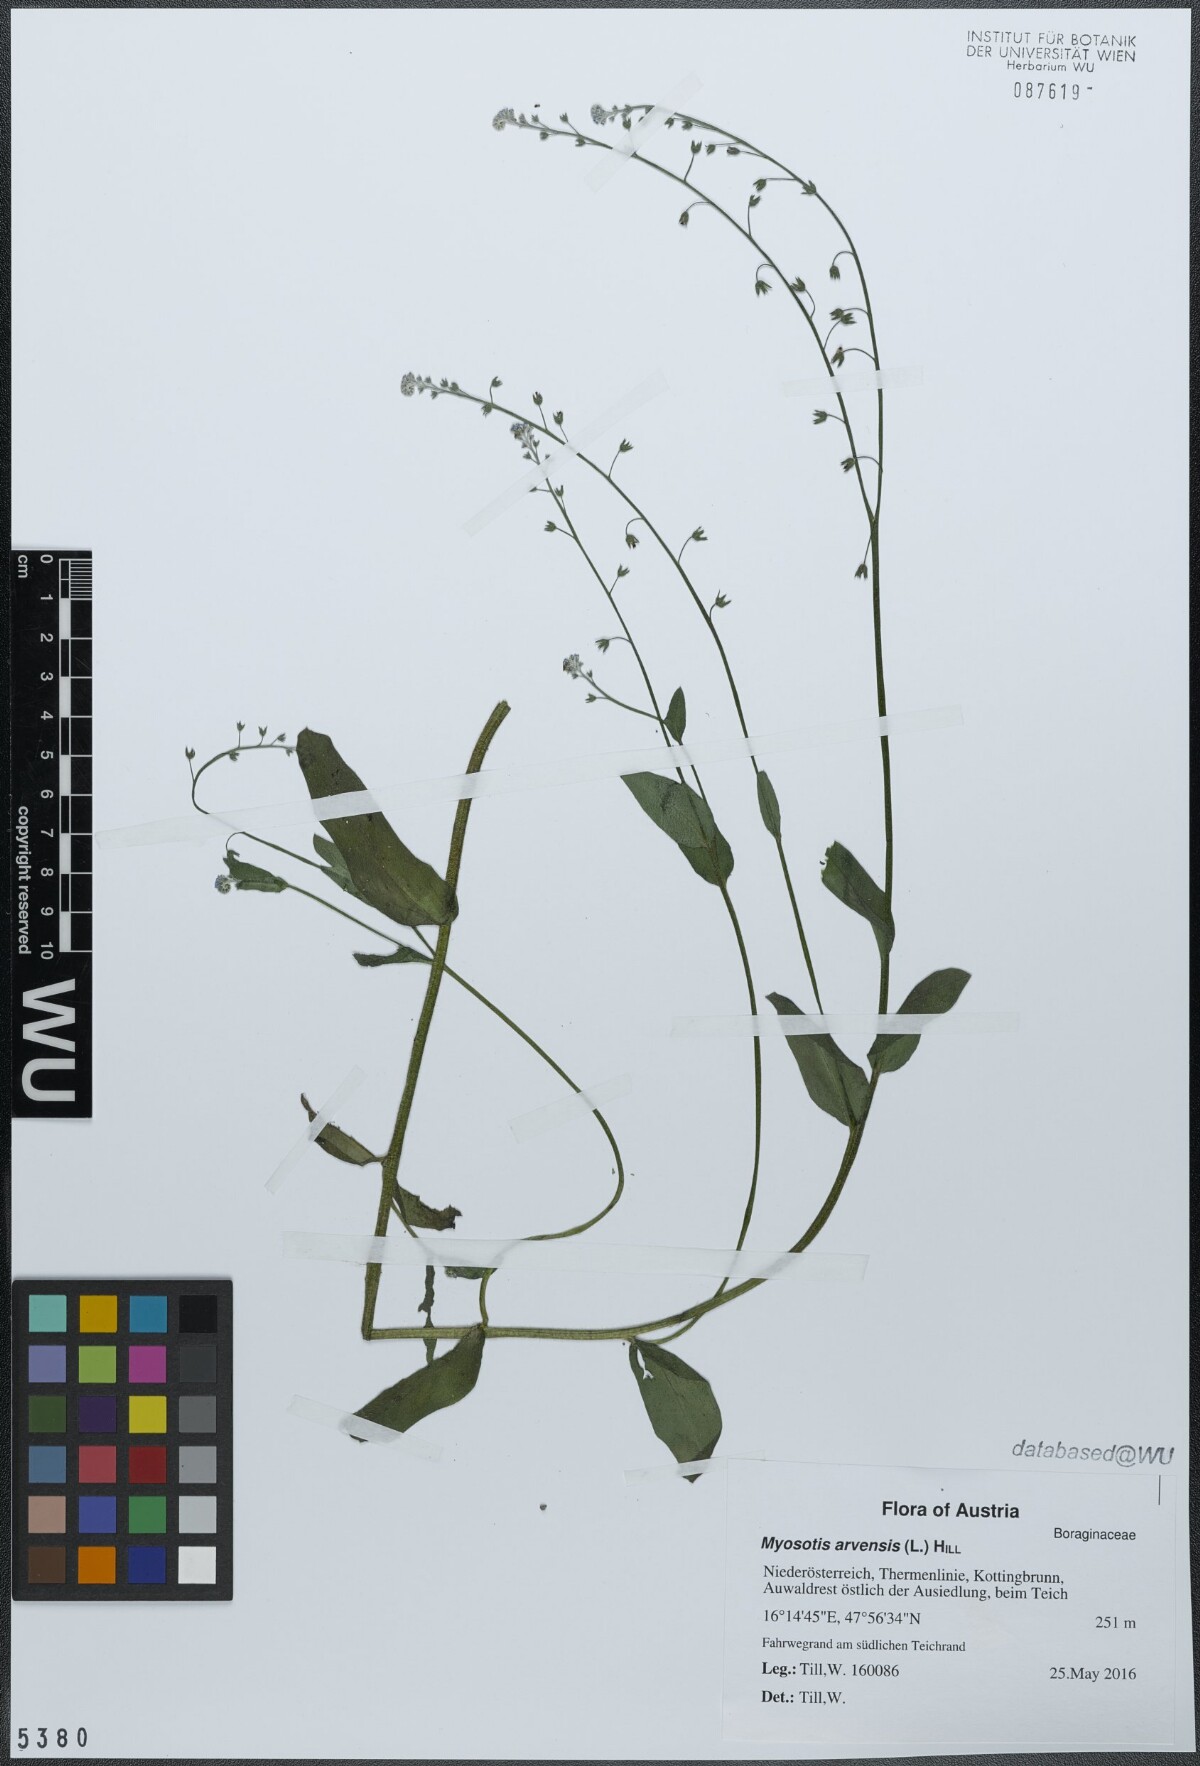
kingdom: Plantae
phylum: Tracheophyta
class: Magnoliopsida
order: Boraginales
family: Boraginaceae
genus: Myosotis
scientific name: Myosotis arvensis
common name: Field forget-me-not
